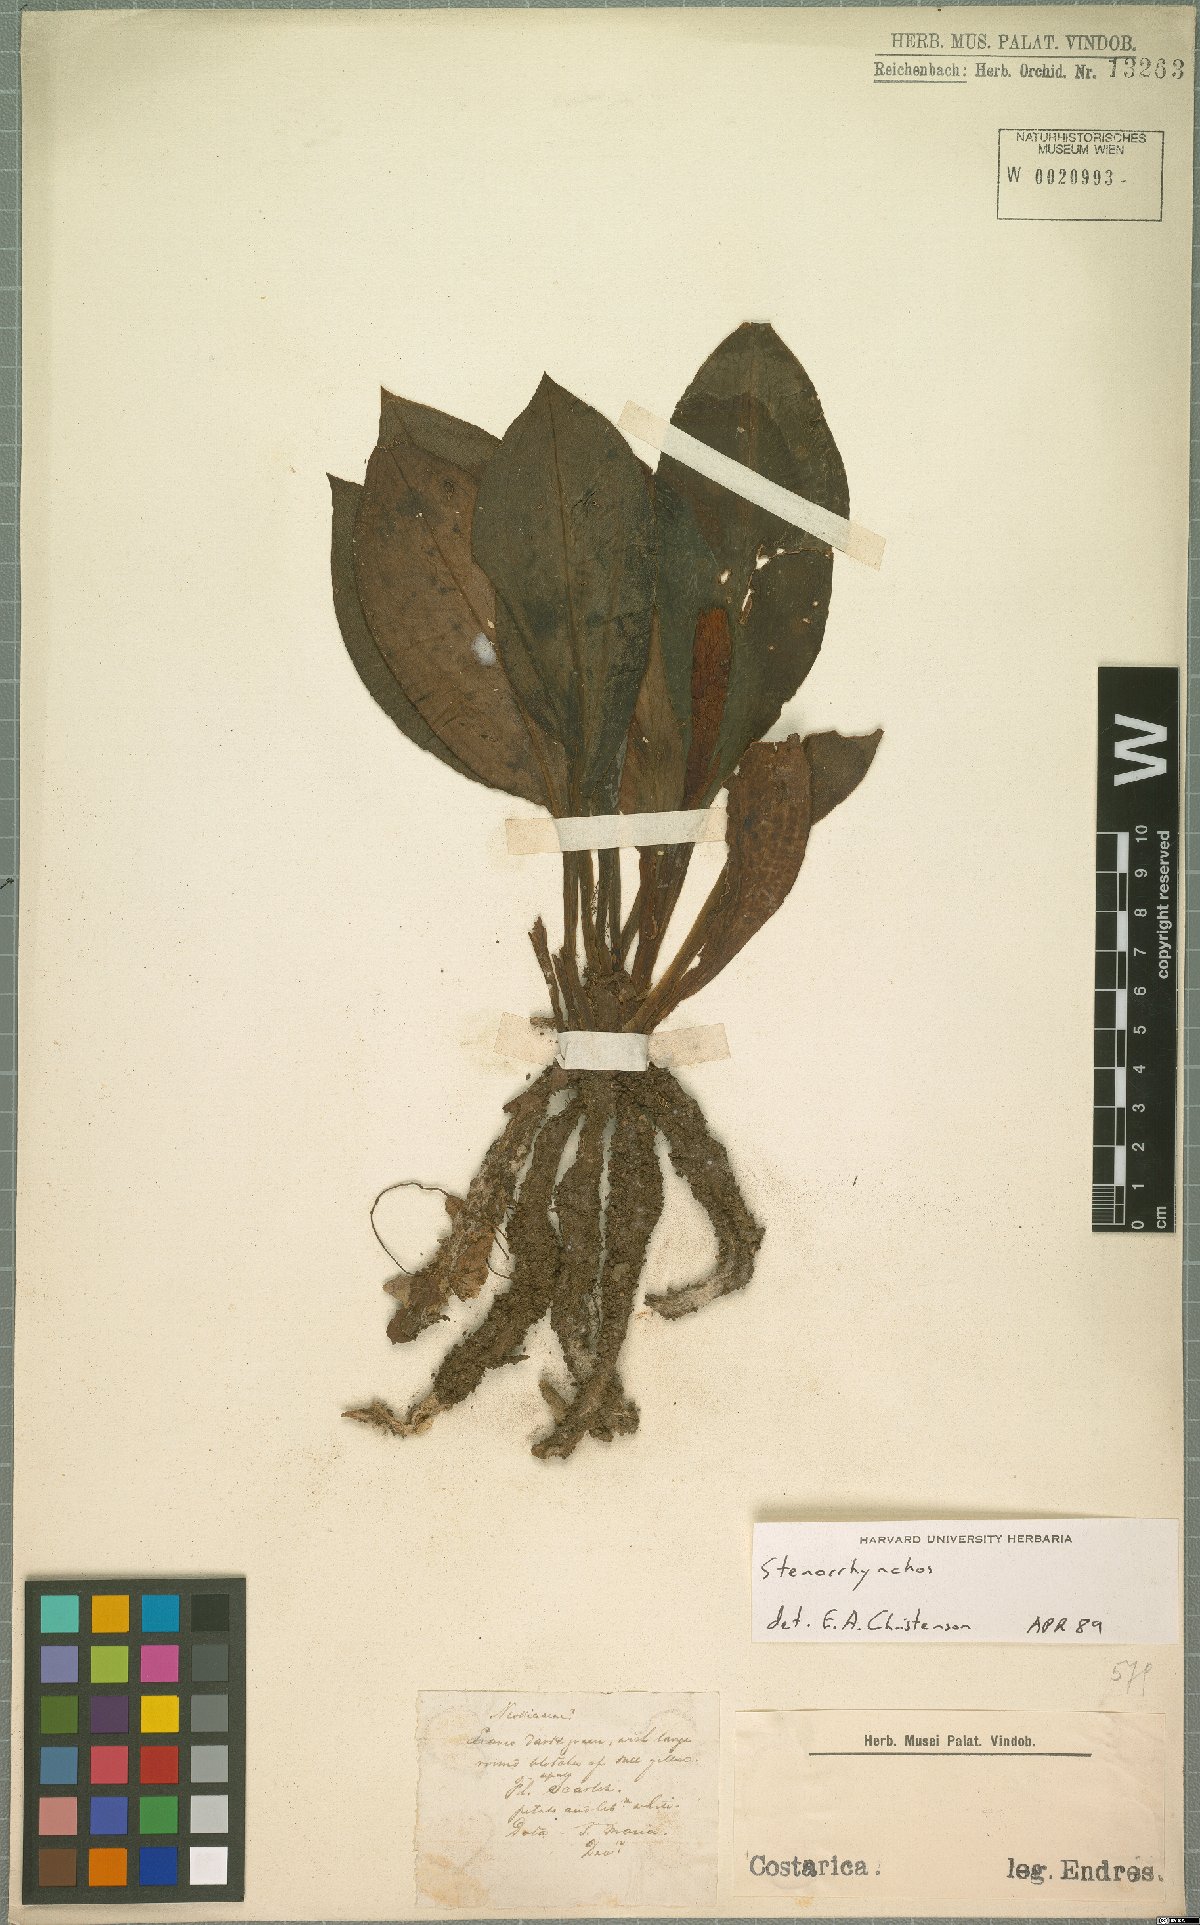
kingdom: Plantae
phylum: Tracheophyta
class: Liliopsida
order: Asparagales
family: Orchidaceae
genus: Stenorrhynchos
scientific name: Stenorrhynchos
